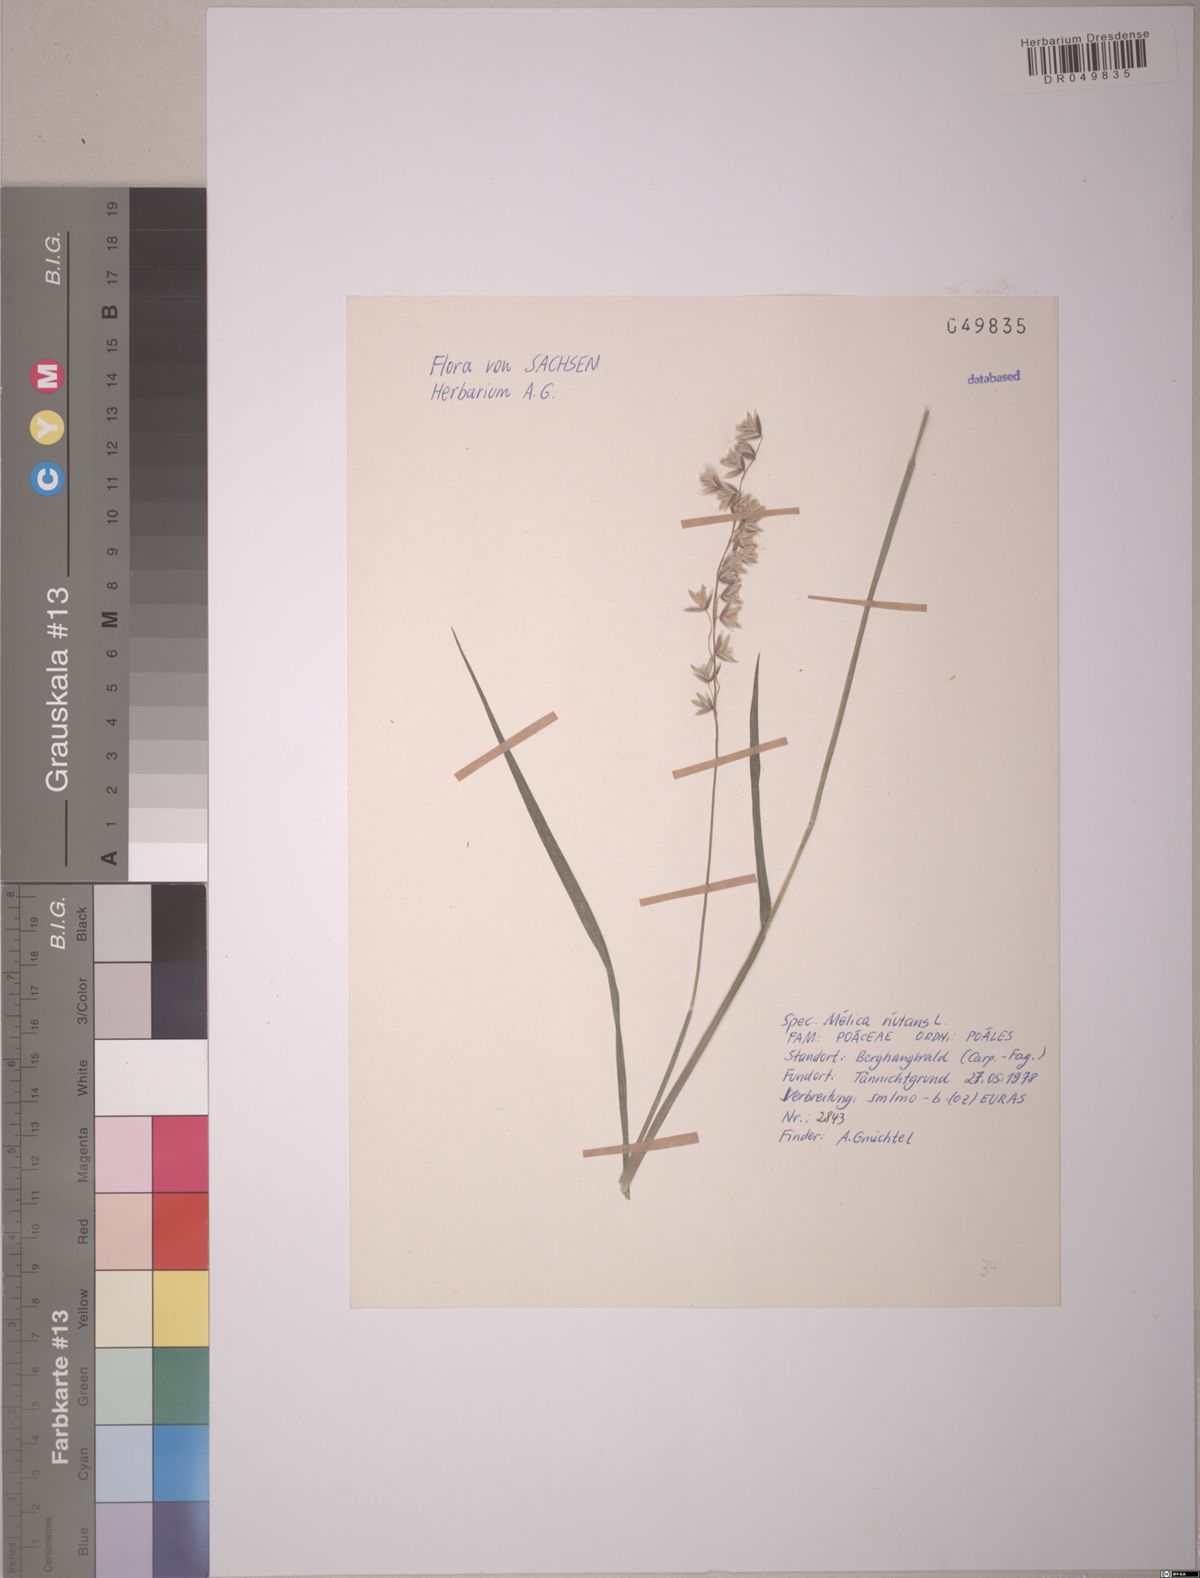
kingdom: Plantae
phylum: Tracheophyta
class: Liliopsida
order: Poales
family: Poaceae
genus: Melica
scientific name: Melica nutans
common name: Mountain melick
